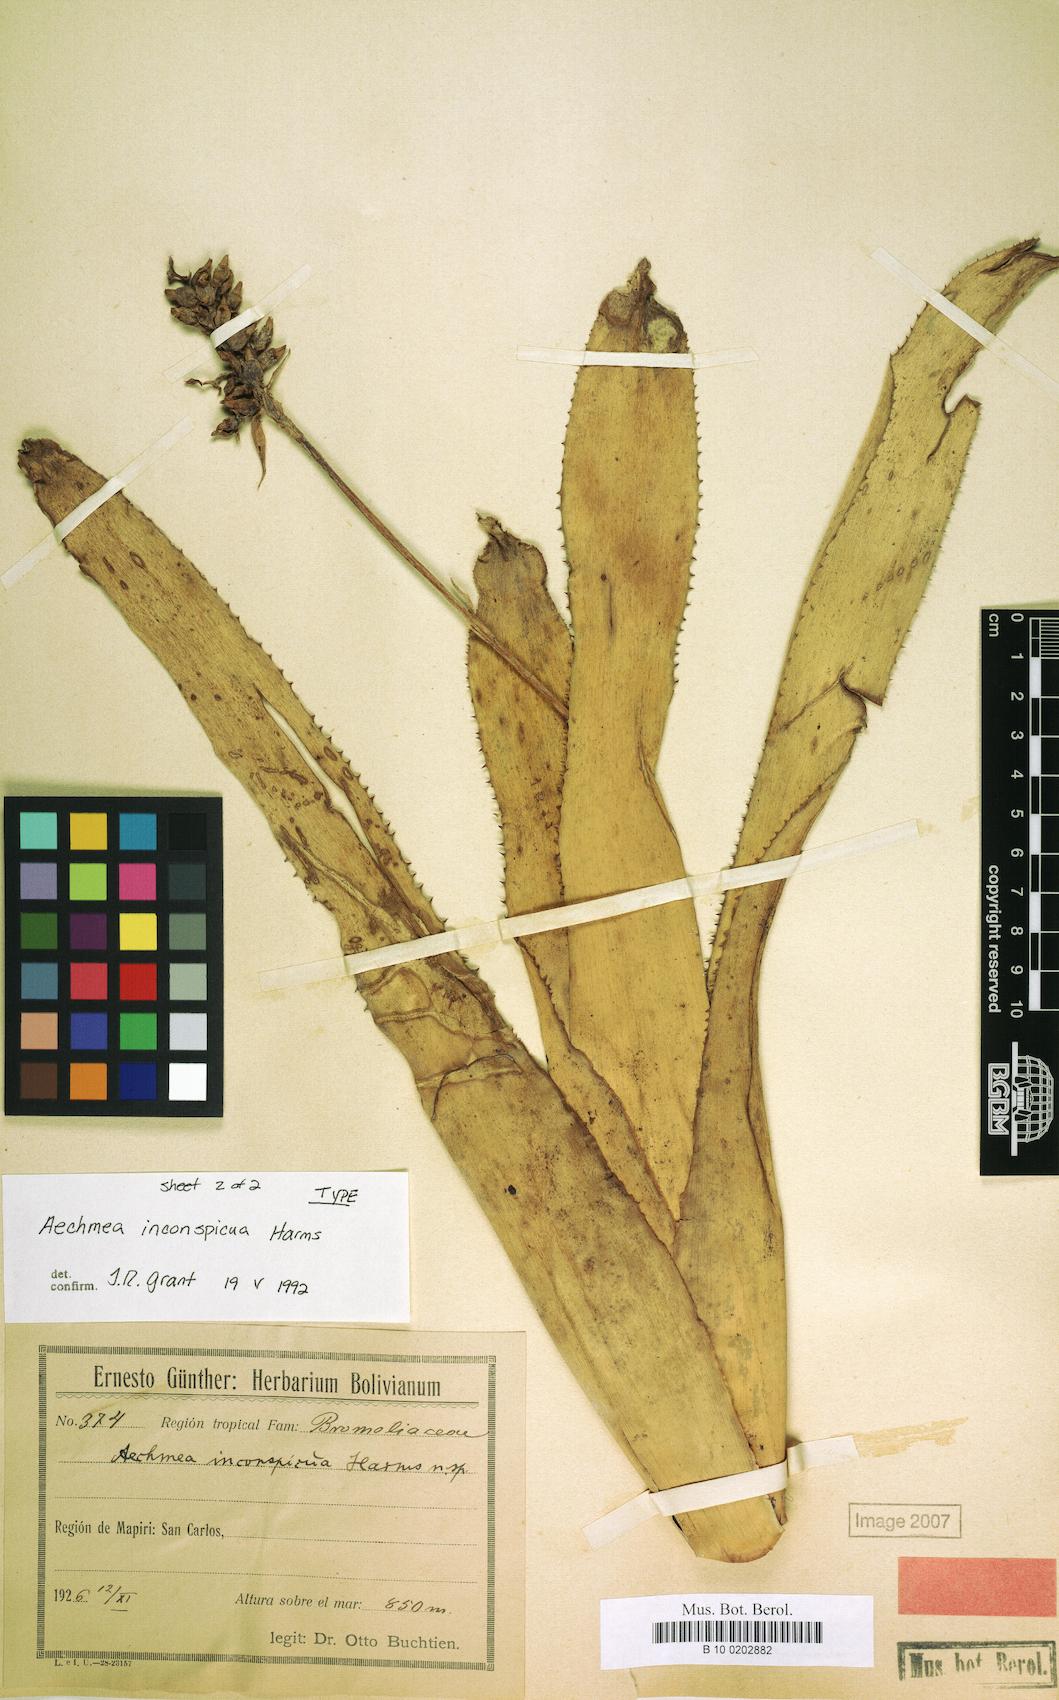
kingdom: Plantae
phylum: Tracheophyta
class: Liliopsida
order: Poales
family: Bromeliaceae
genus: Aechmea
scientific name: Aechmea angustifolia
